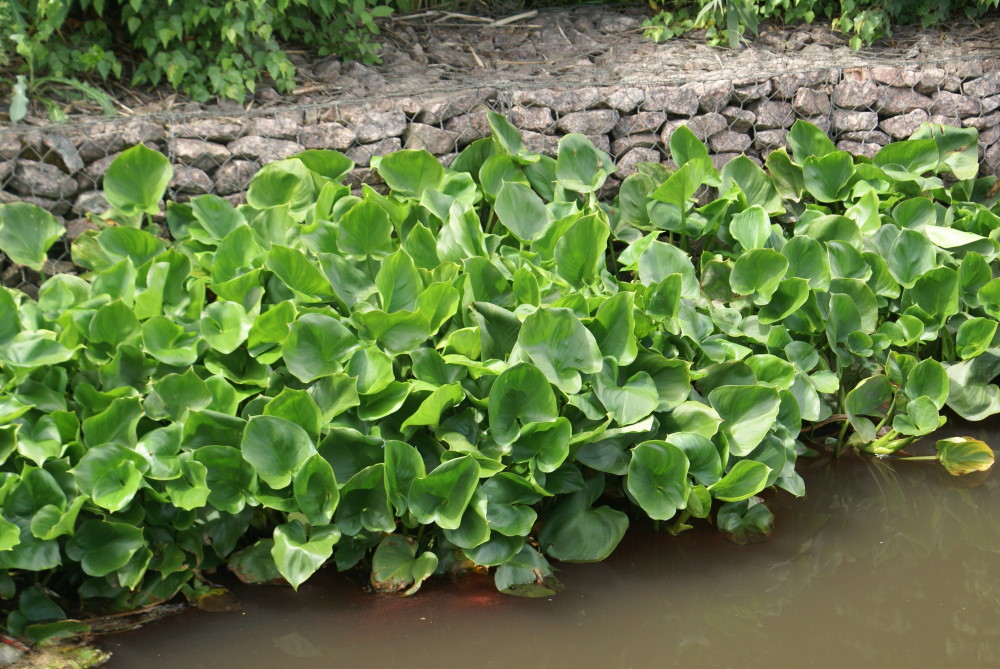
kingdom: Plantae
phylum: Tracheophyta
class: Liliopsida
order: Alismatales
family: Araceae
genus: Calla
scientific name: Calla palustris
